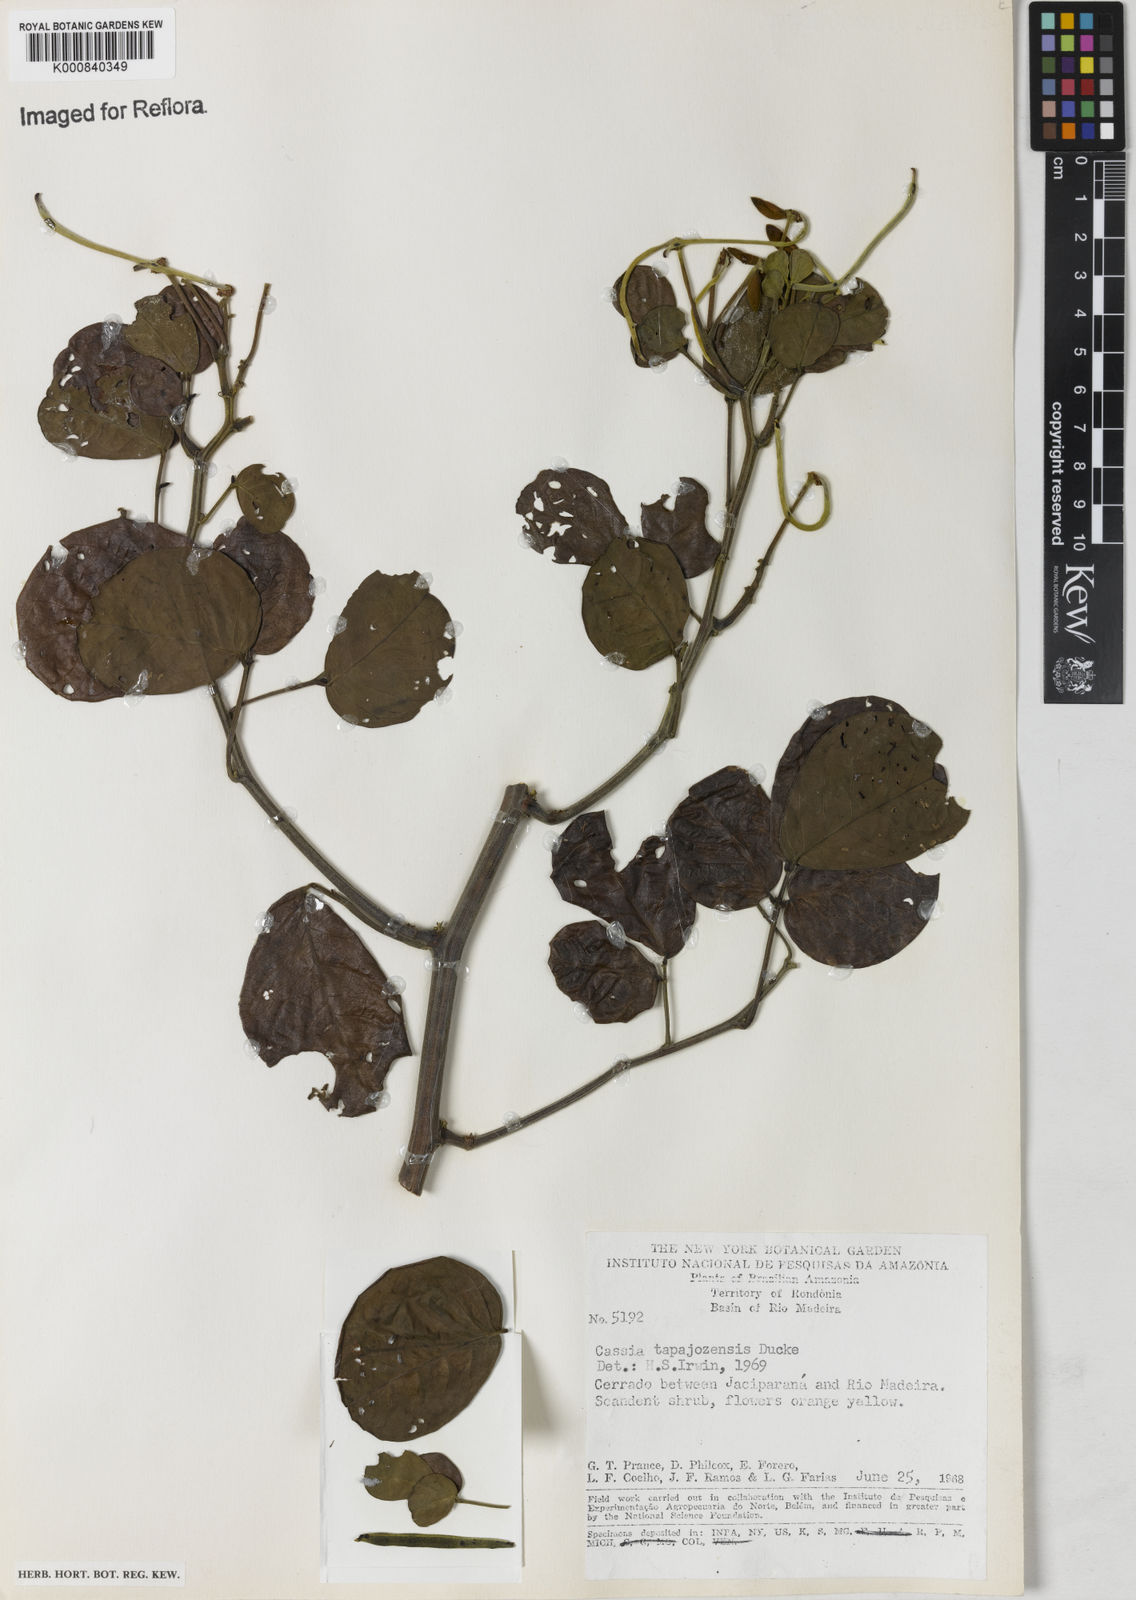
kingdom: Plantae
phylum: Tracheophyta
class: Magnoliopsida
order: Fabales
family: Fabaceae
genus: Senna
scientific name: Senna tapajozensis
